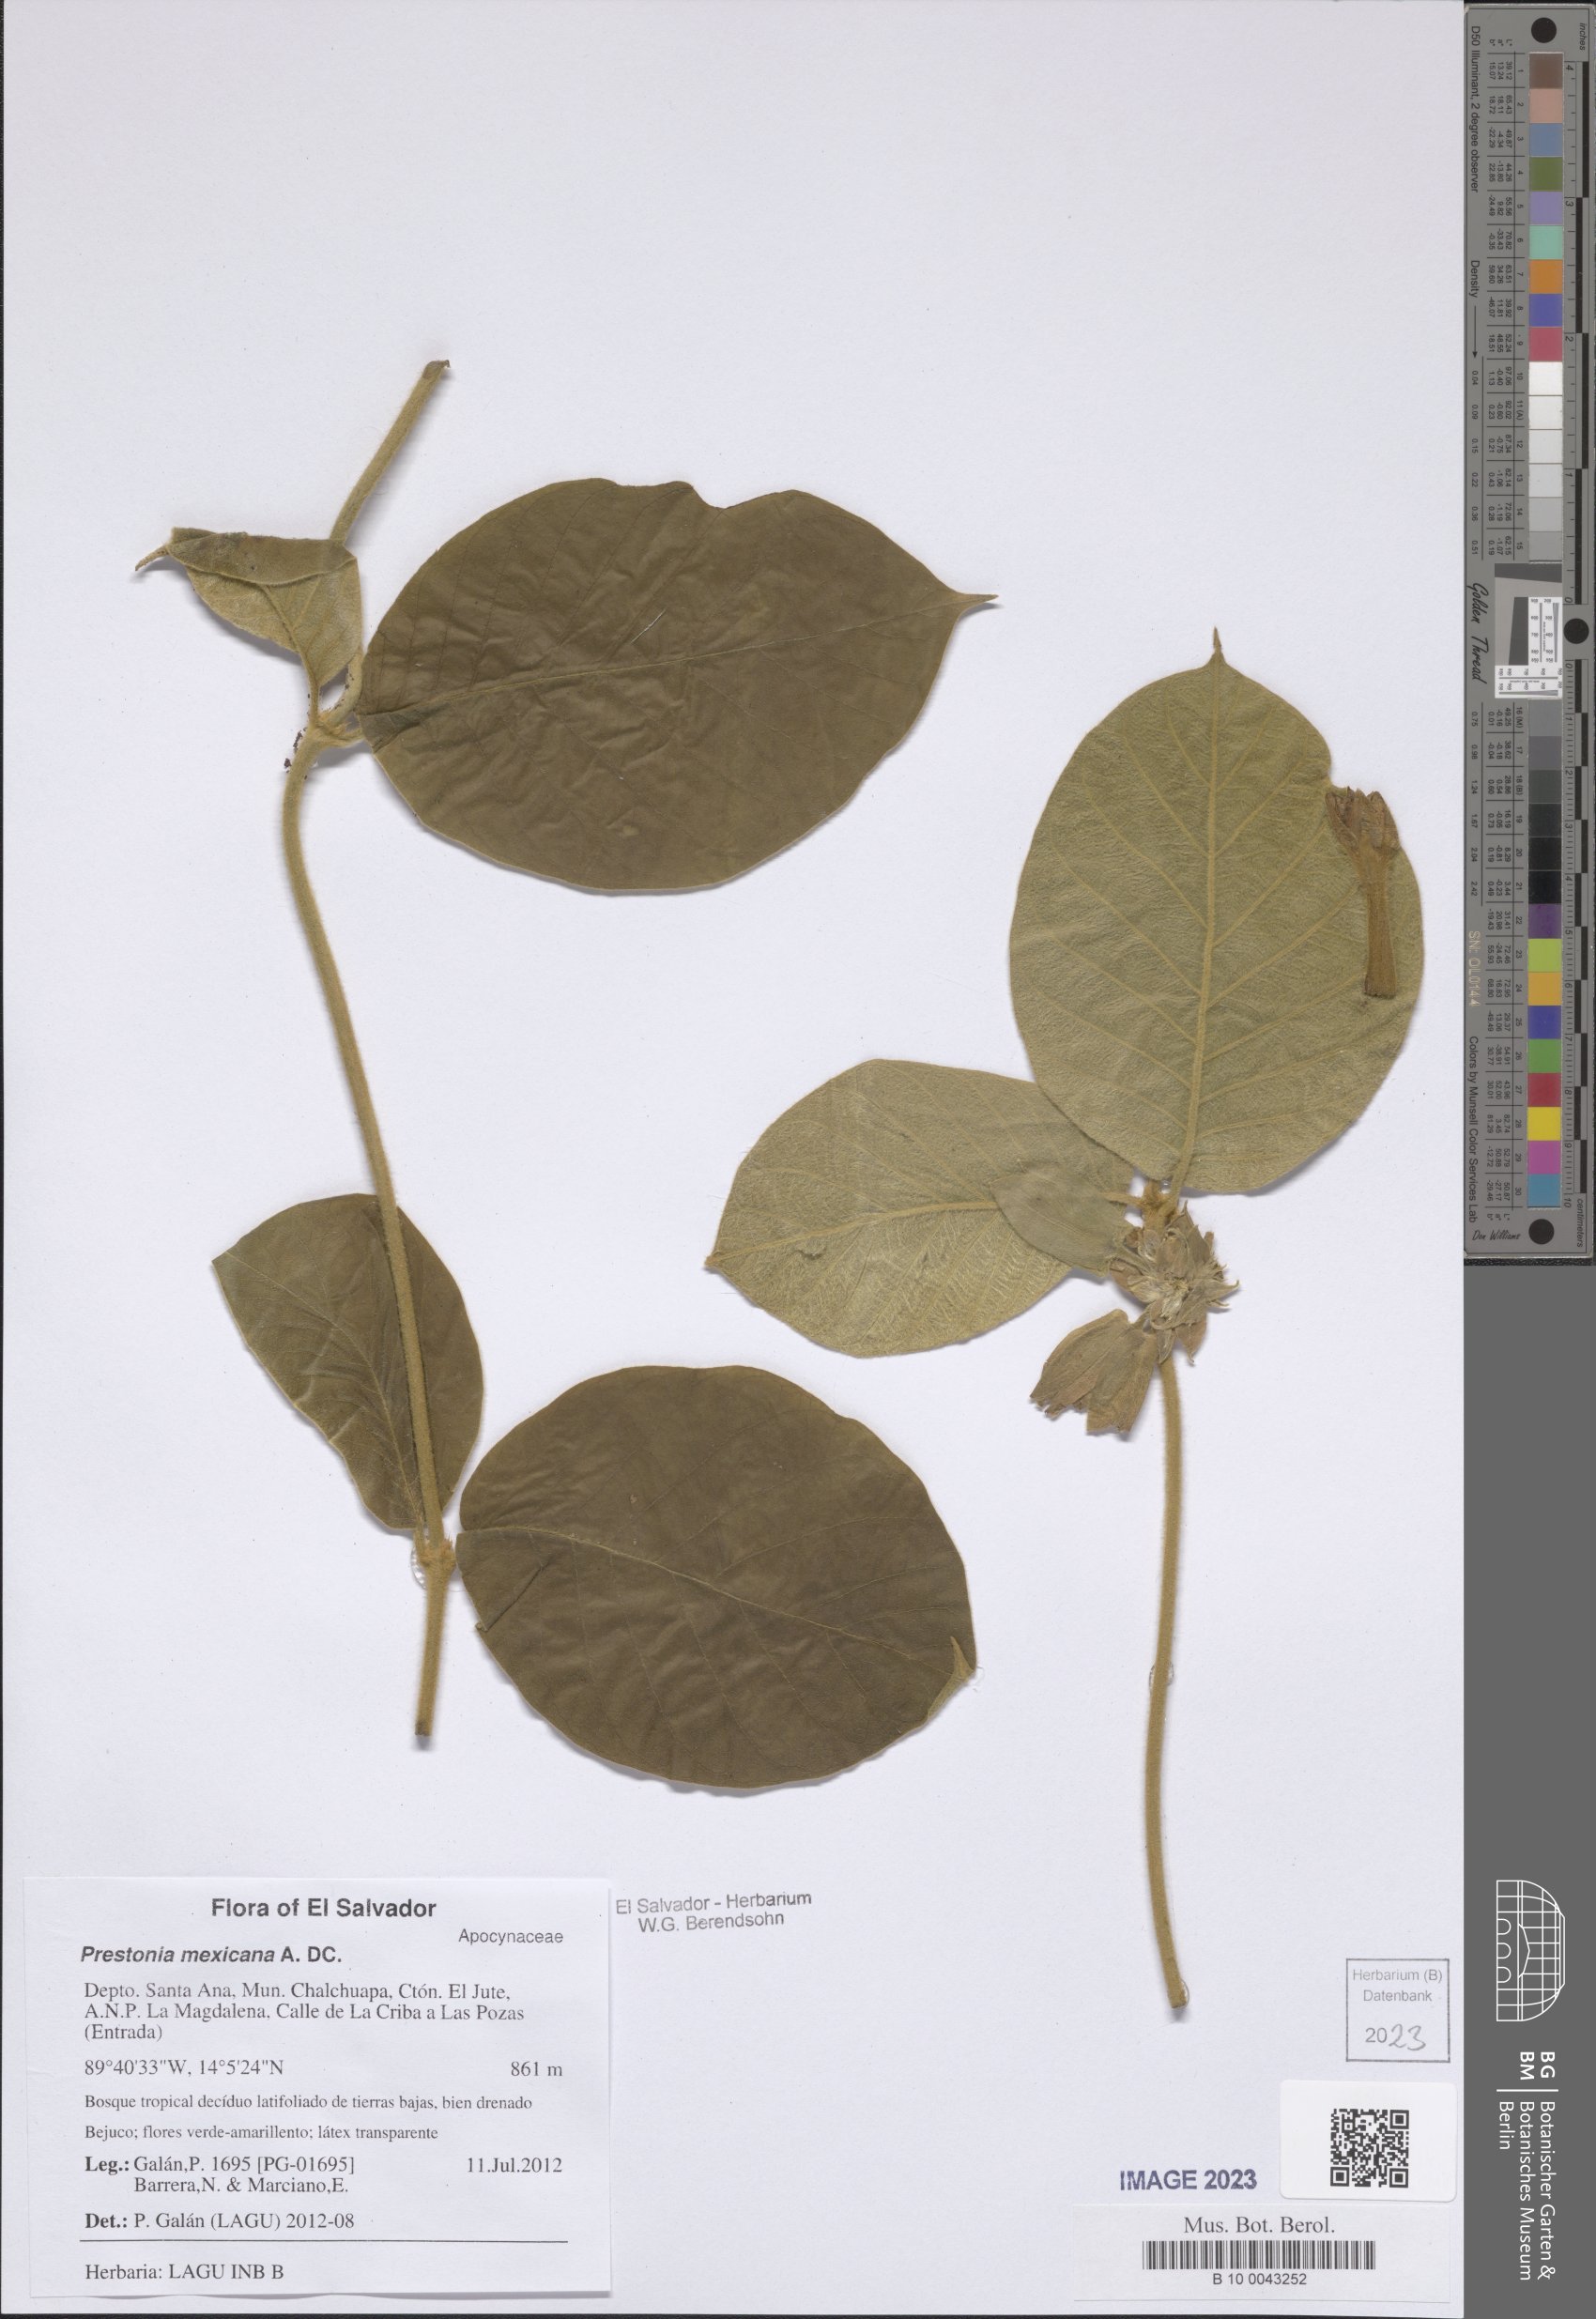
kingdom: Plantae
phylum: Tracheophyta
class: Magnoliopsida
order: Gentianales
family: Apocynaceae
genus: Prestonia
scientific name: Prestonia mexicana
